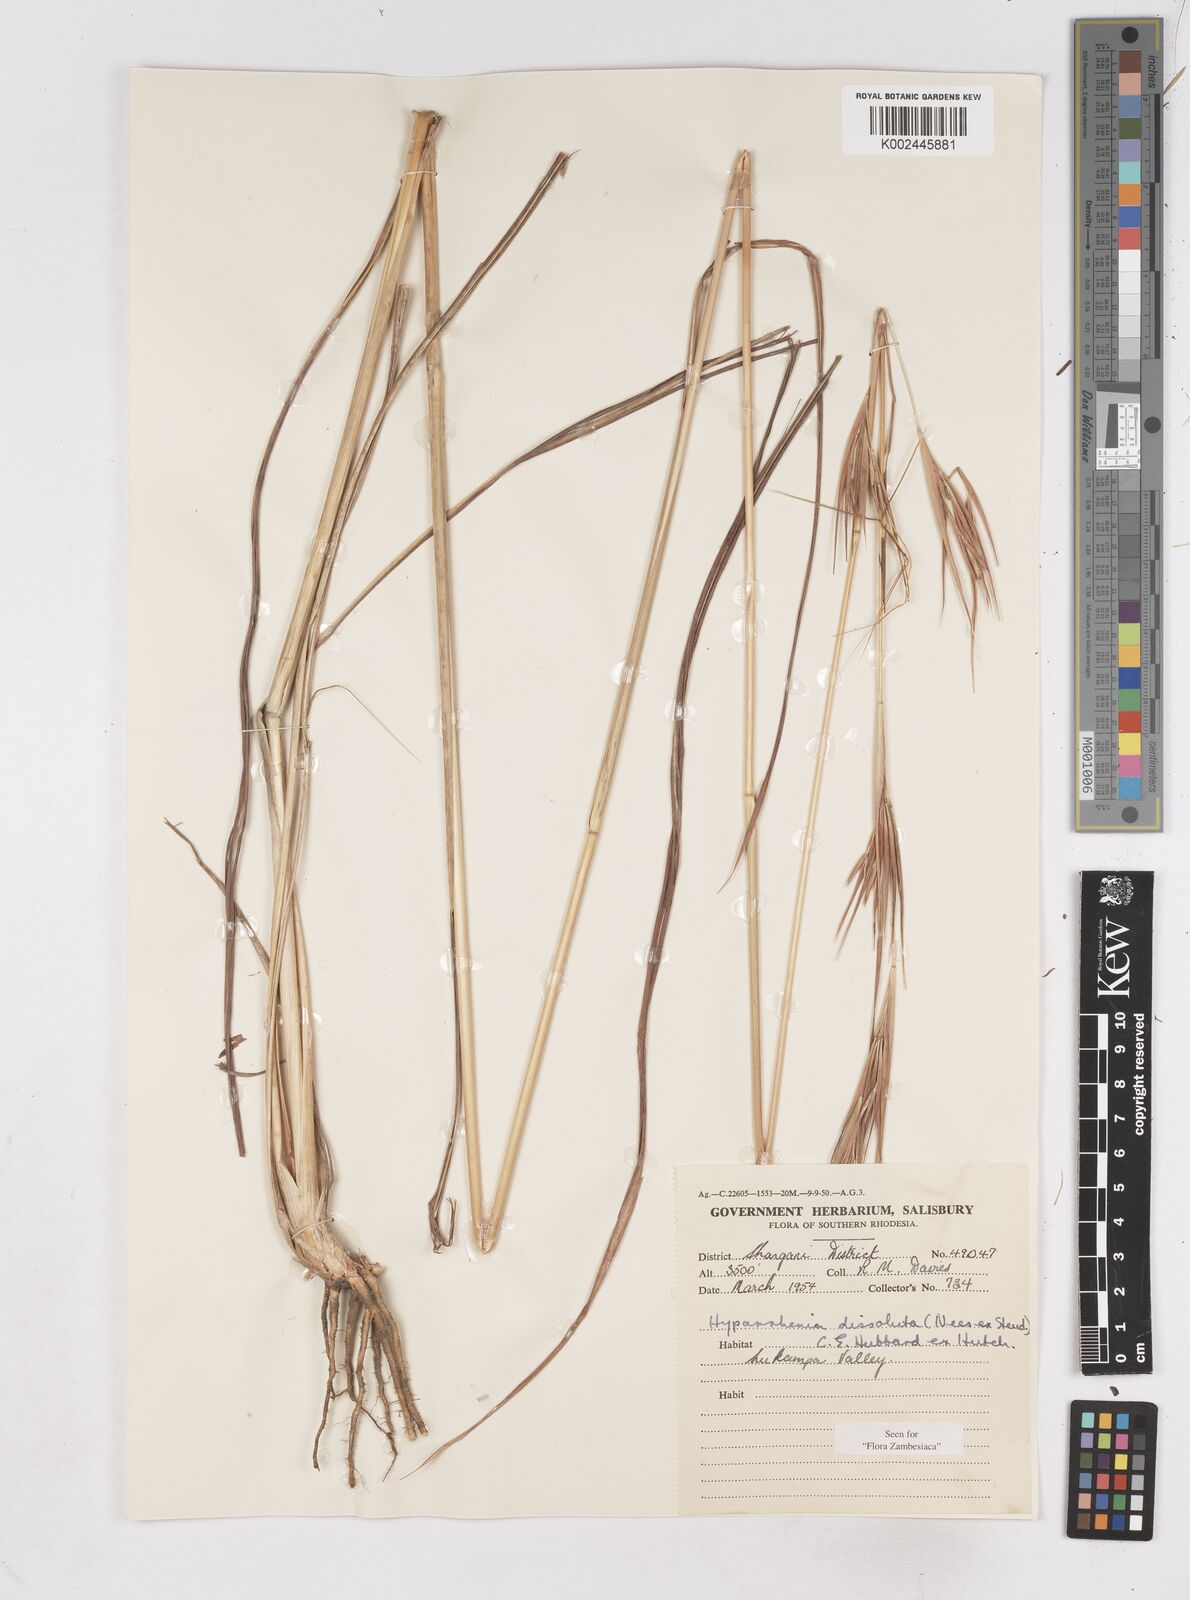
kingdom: Plantae
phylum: Tracheophyta
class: Liliopsida
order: Poales
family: Poaceae
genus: Hyperthelia
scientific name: Hyperthelia dissoluta
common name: Yellow thatching grass
